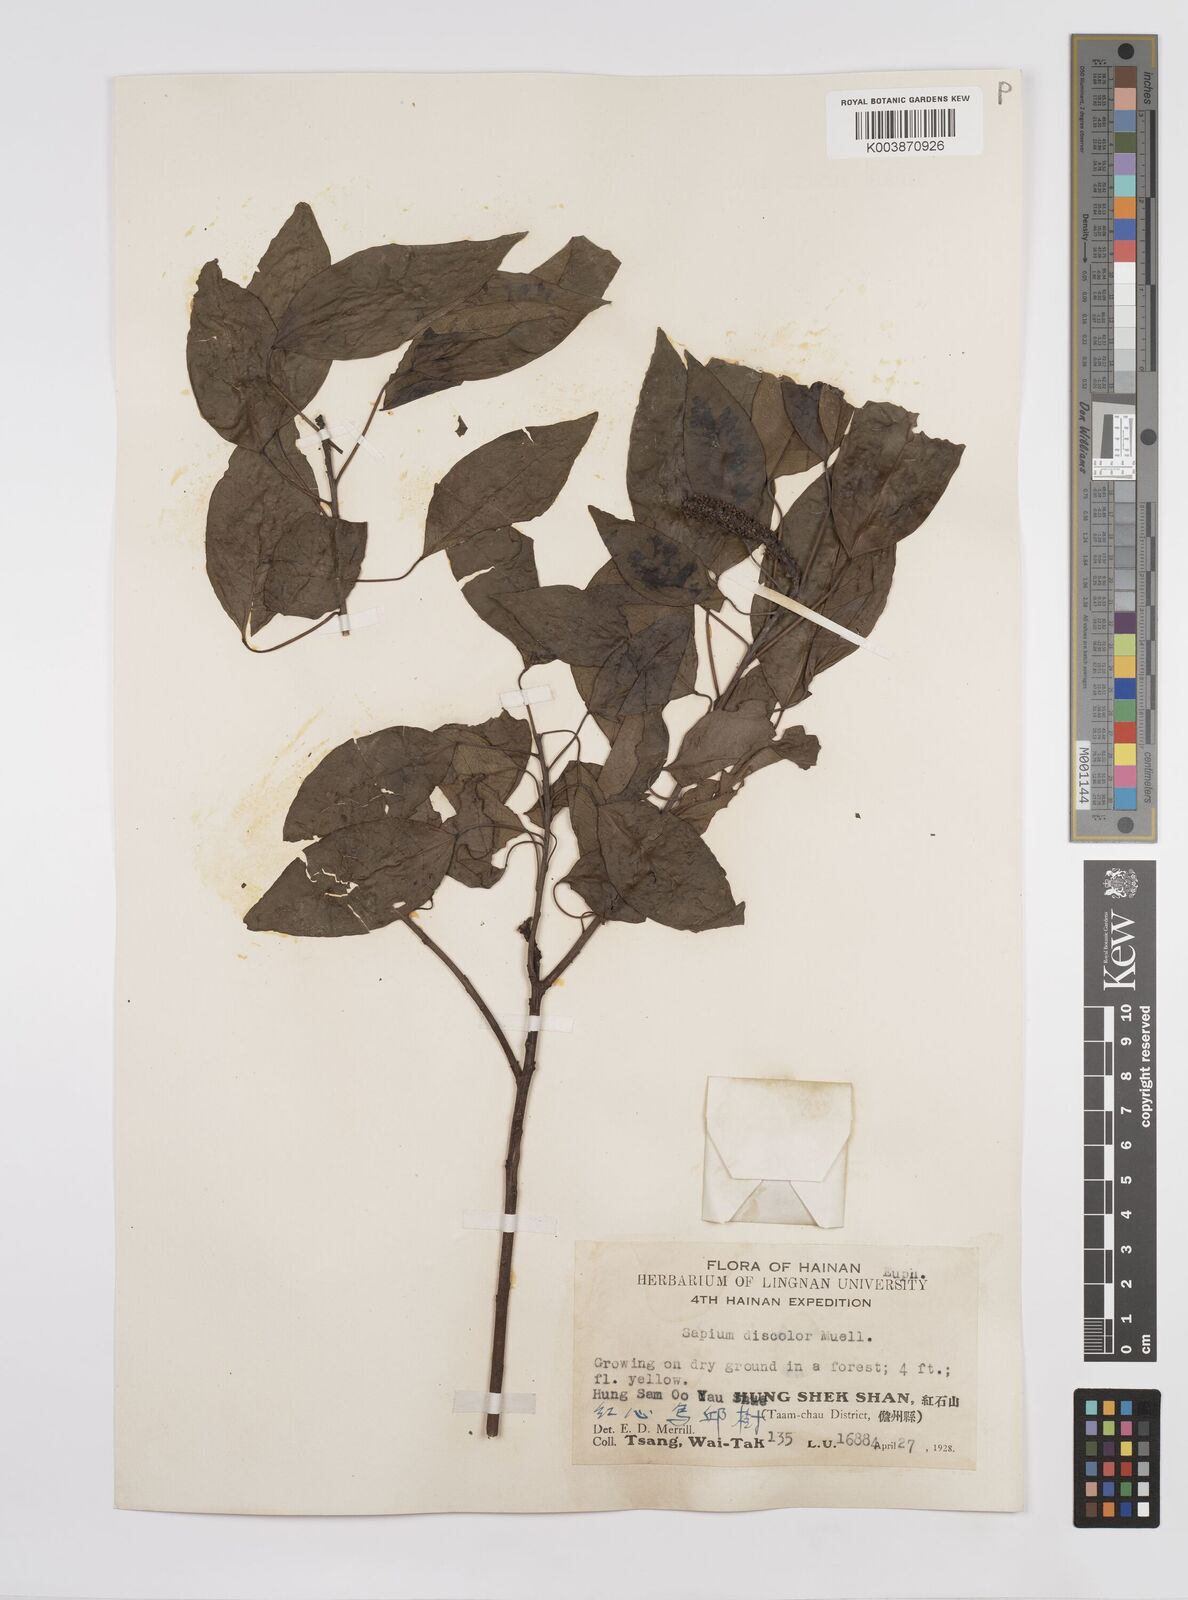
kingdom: Plantae
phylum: Tracheophyta
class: Magnoliopsida
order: Malpighiales
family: Euphorbiaceae
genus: Triadica
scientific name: Triadica cochinchinensis
